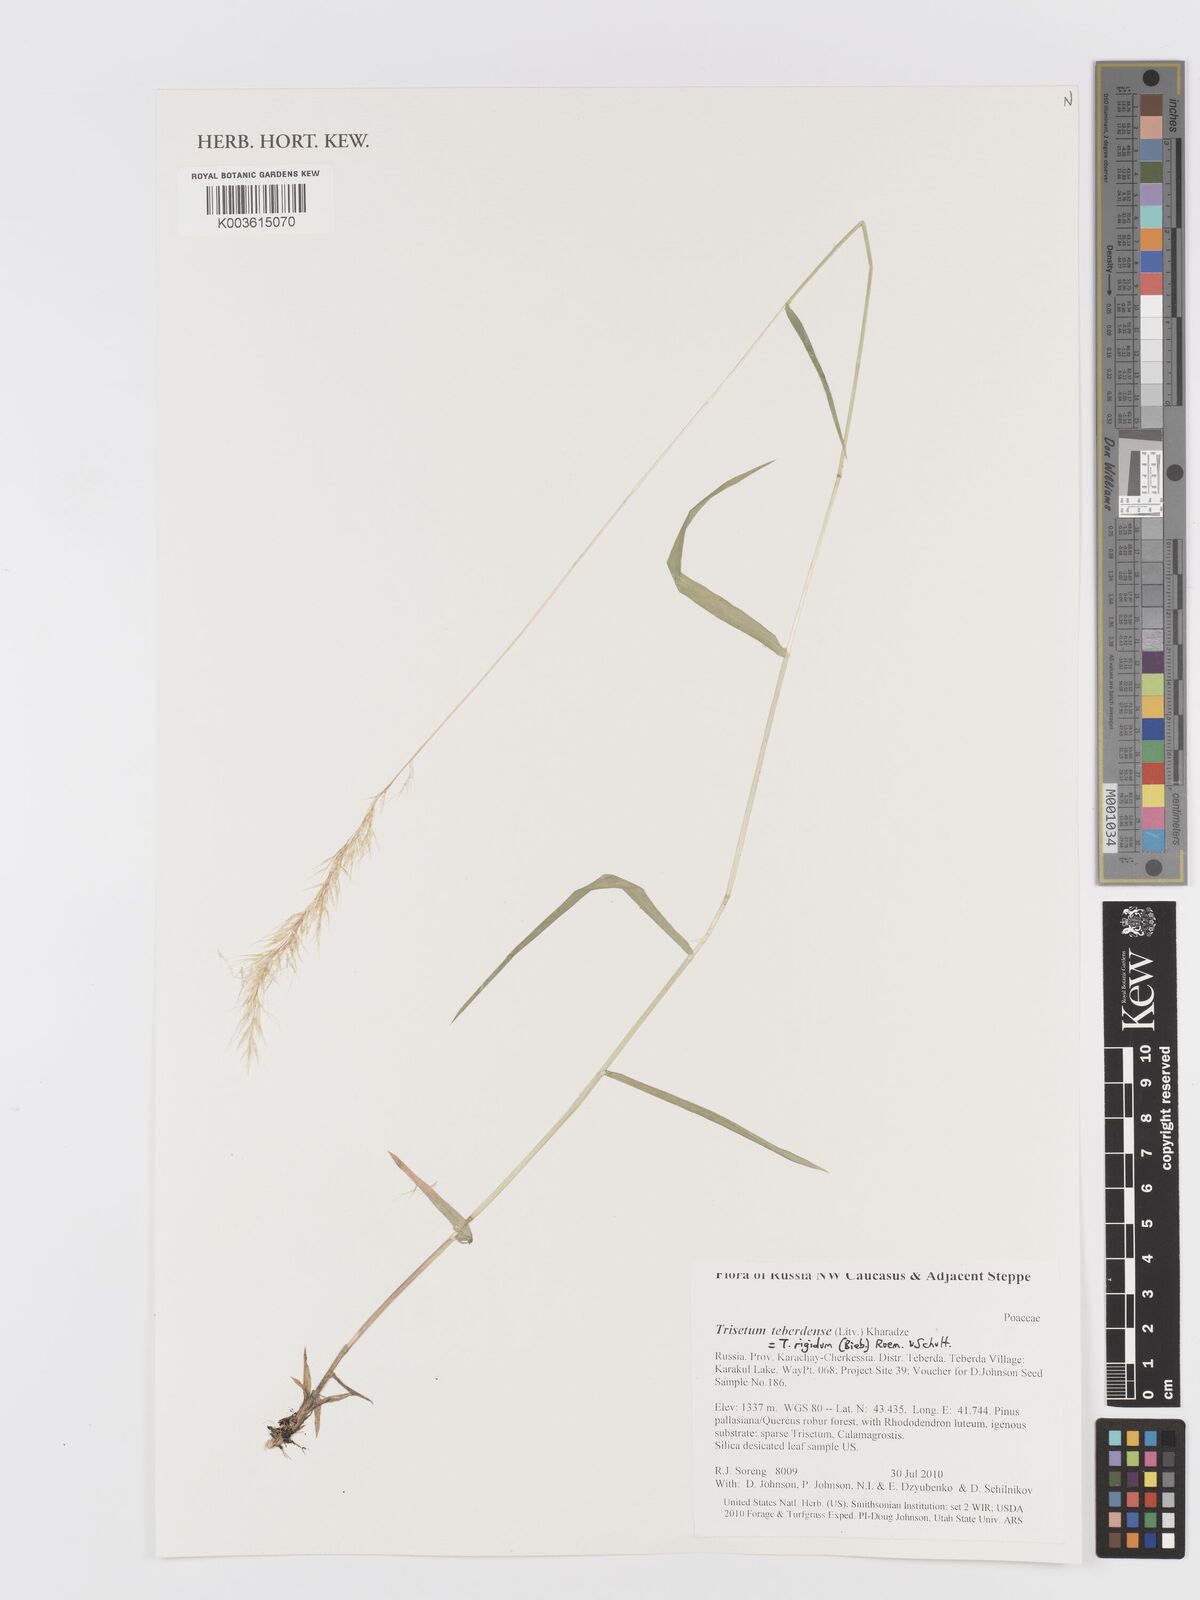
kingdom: Plantae
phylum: Tracheophyta
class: Liliopsida
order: Poales
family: Poaceae
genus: Trisetum
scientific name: Trisetum rigidum
